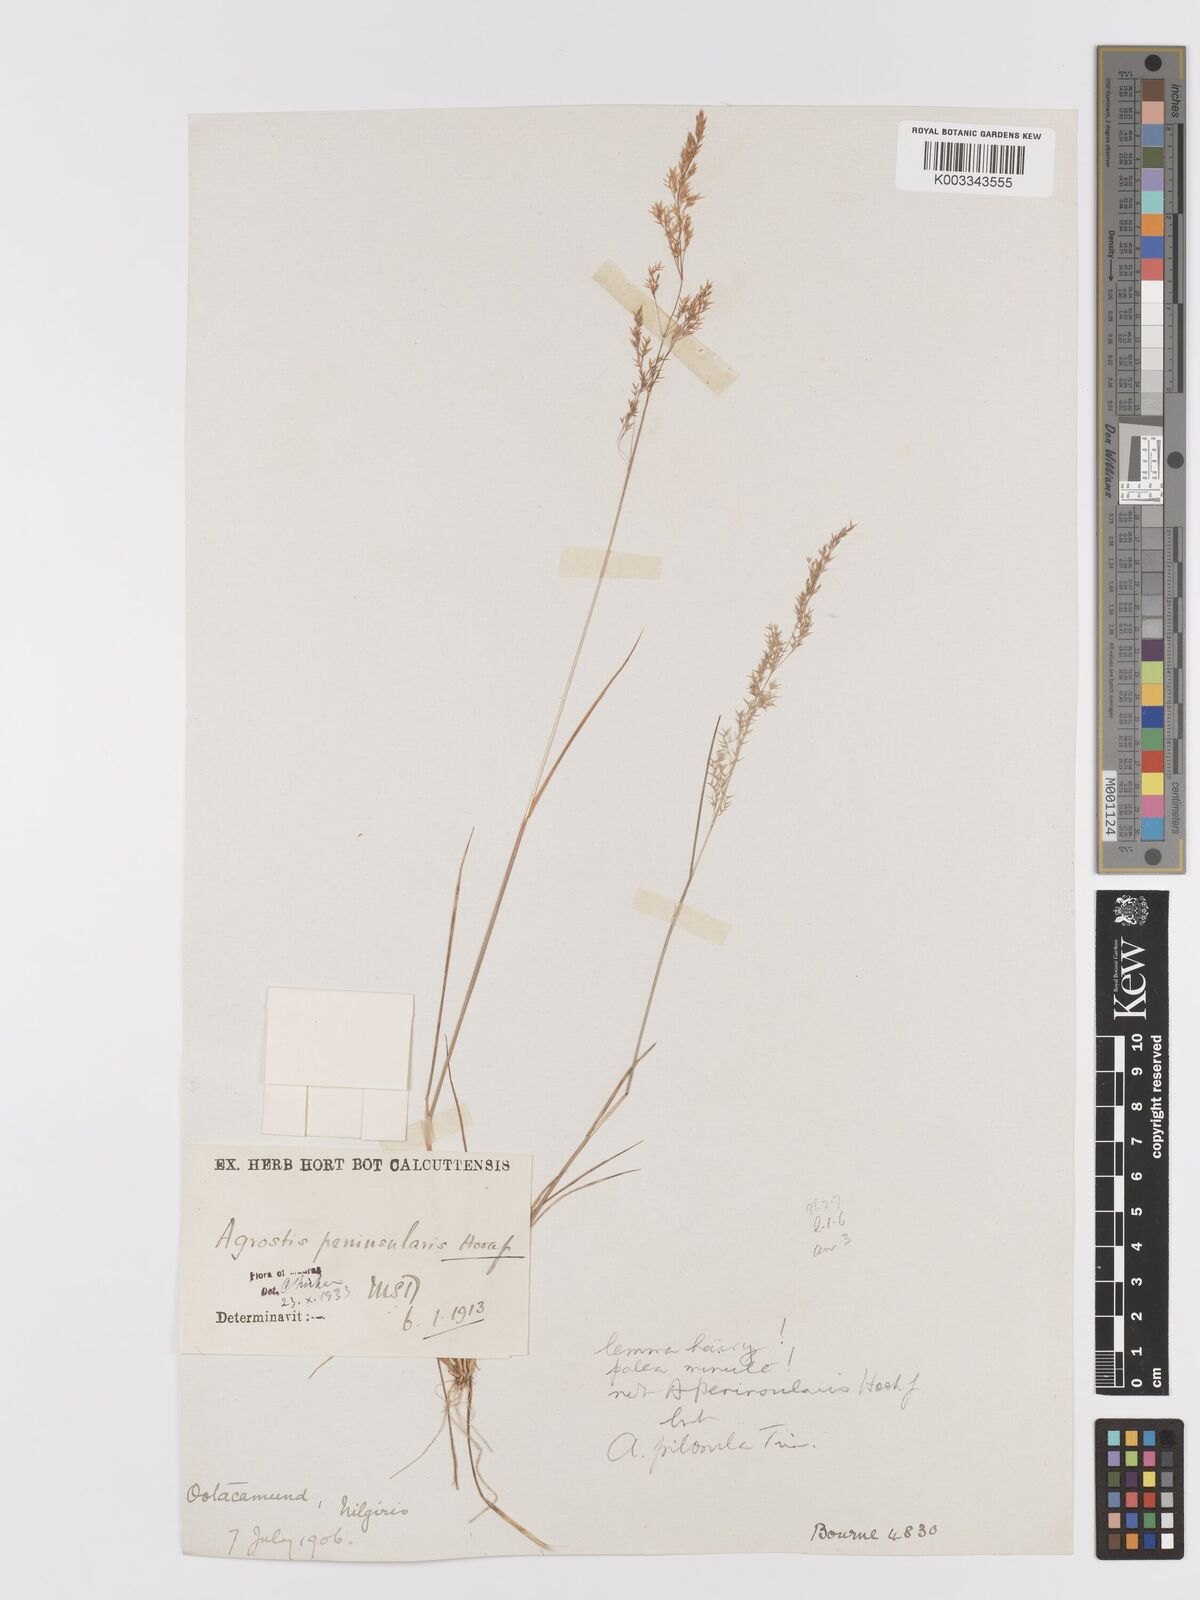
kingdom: Plantae
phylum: Tracheophyta
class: Liliopsida
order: Poales
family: Poaceae
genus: Agrostis
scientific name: Agrostis peninsularis
